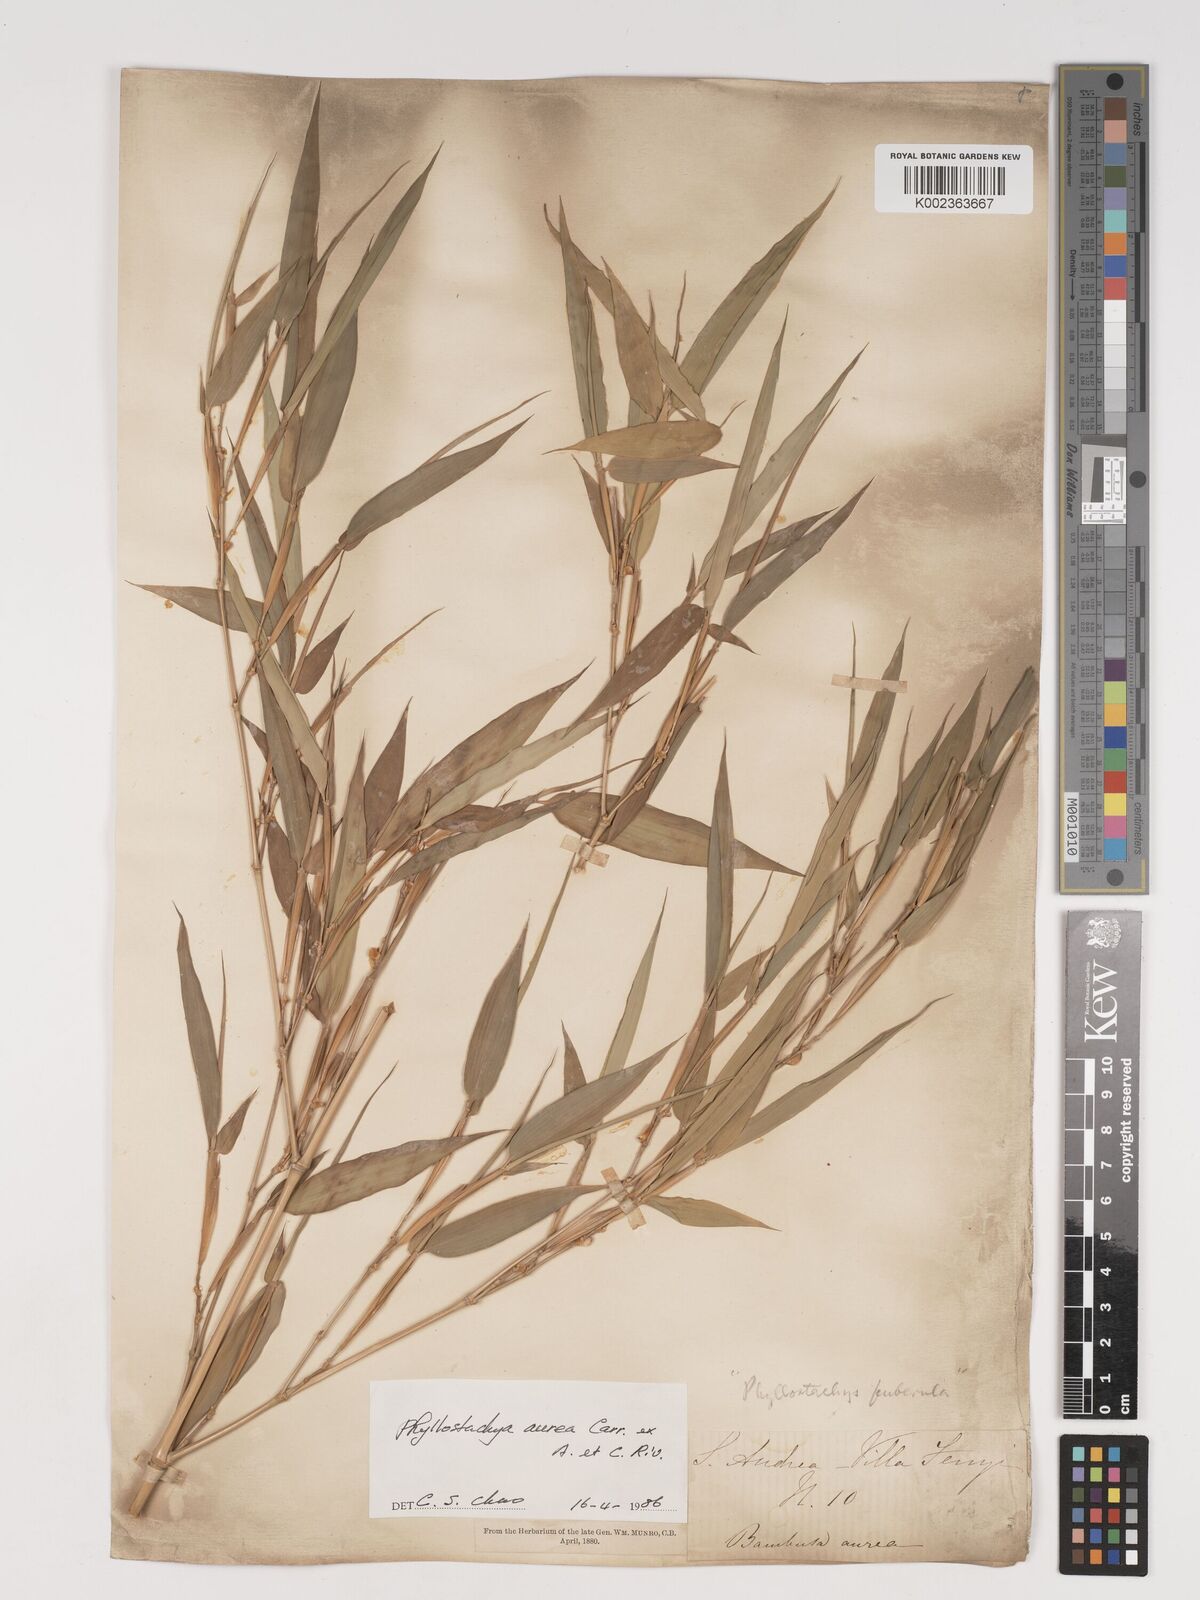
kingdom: Plantae
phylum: Tracheophyta
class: Liliopsida
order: Poales
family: Poaceae
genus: Phyllostachys
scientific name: Phyllostachys aurea
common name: Golden bamboo
